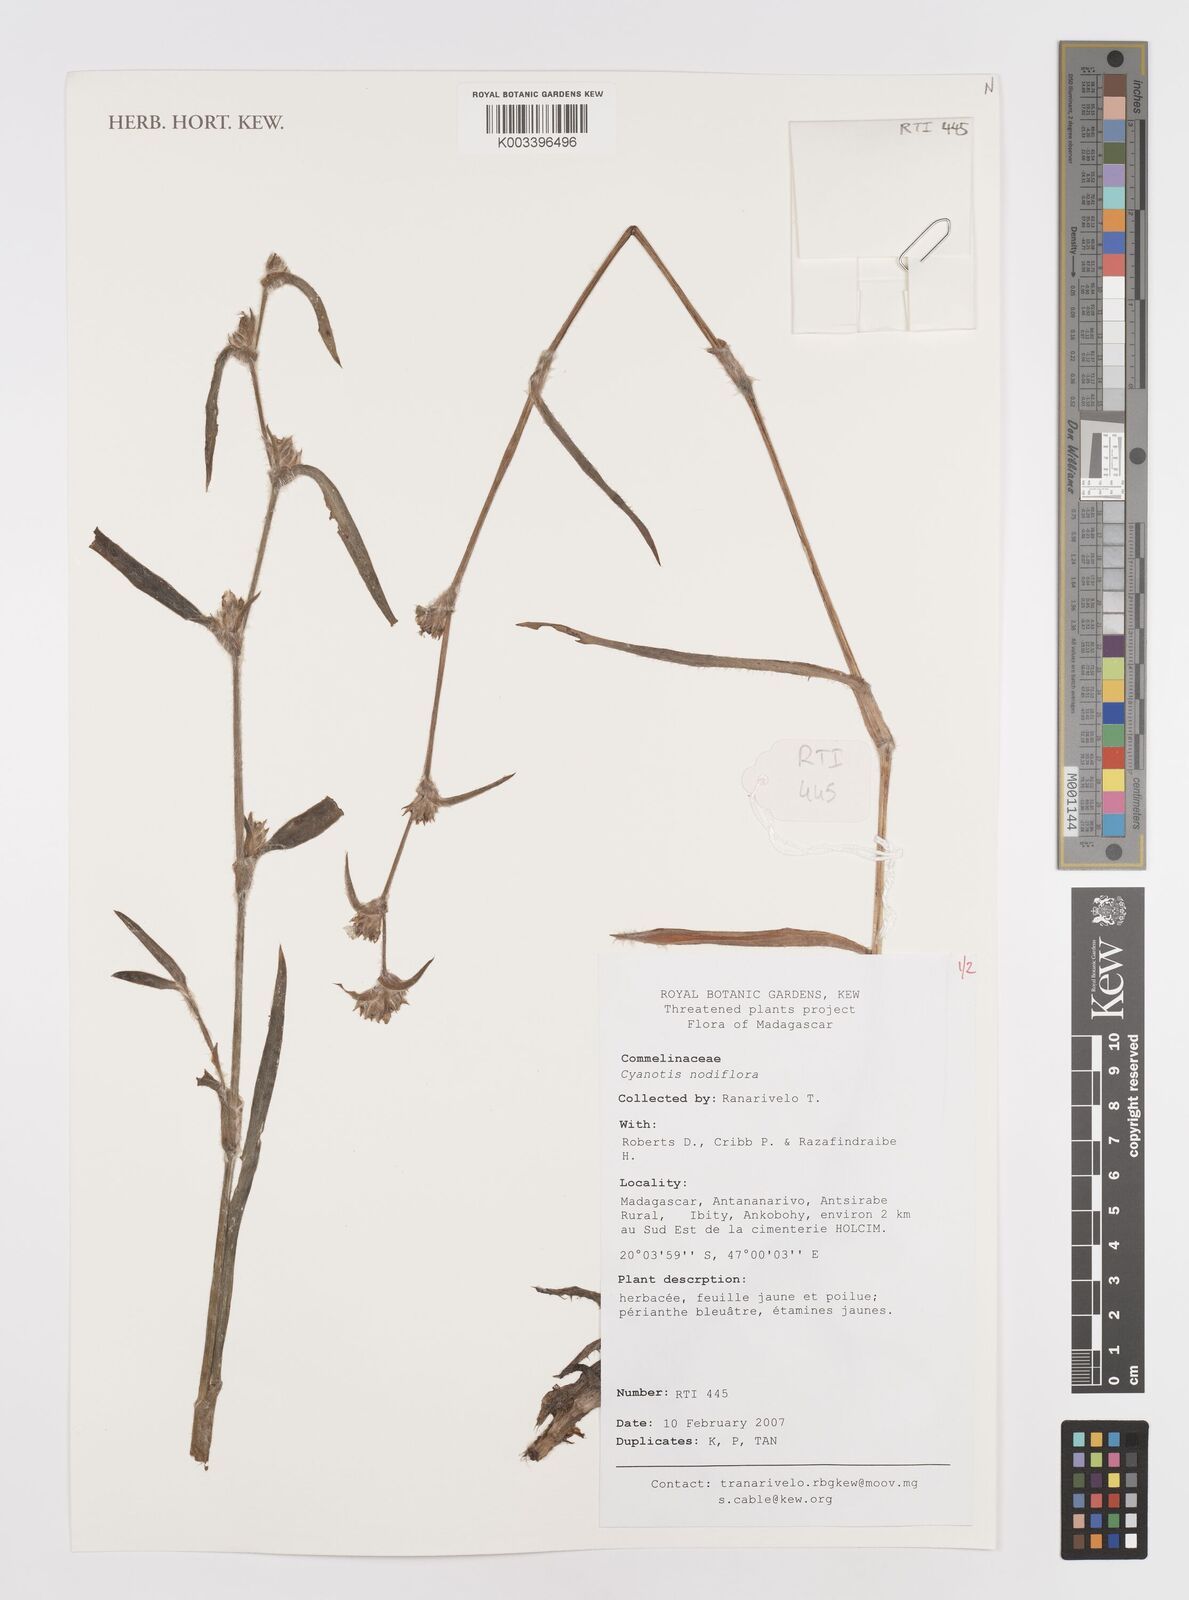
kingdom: Plantae
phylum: Tracheophyta
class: Liliopsida
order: Commelinales
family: Commelinaceae
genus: Cyanotis
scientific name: Cyanotis speciosa
